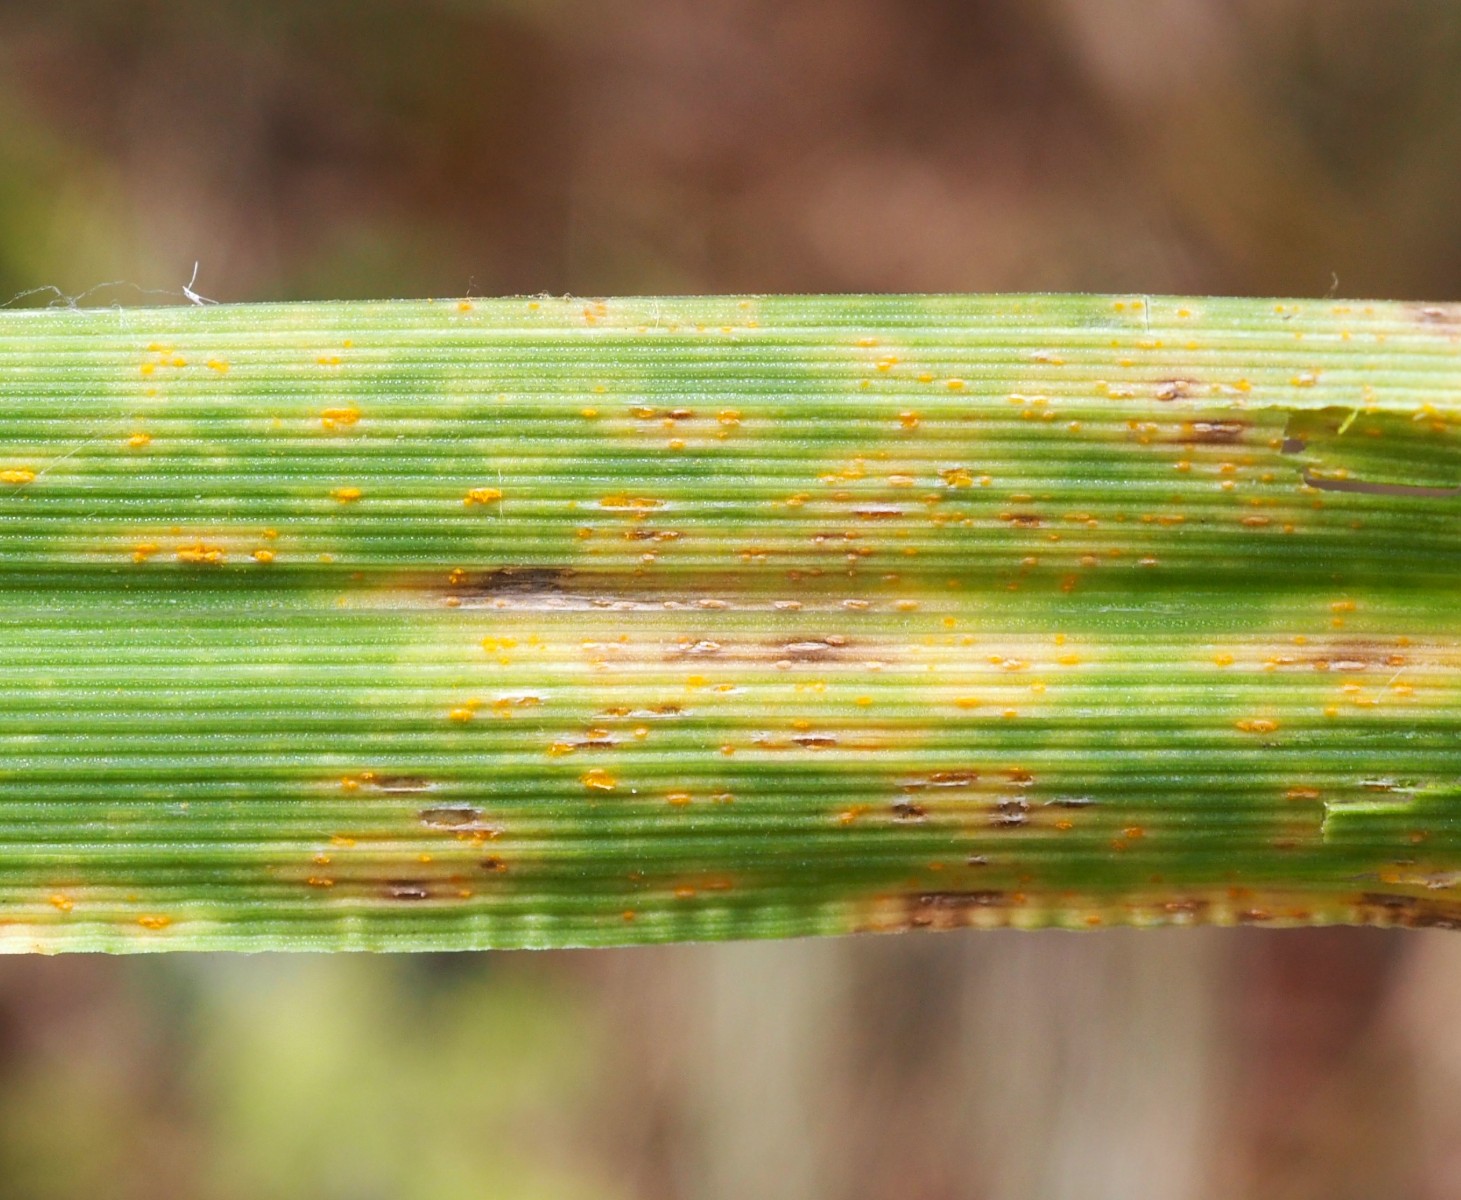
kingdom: Fungi
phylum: Basidiomycota
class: Pucciniomycetes
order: Pucciniales
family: Pucciniaceae
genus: Puccinia
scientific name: Puccinia coronata
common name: Crown rust
